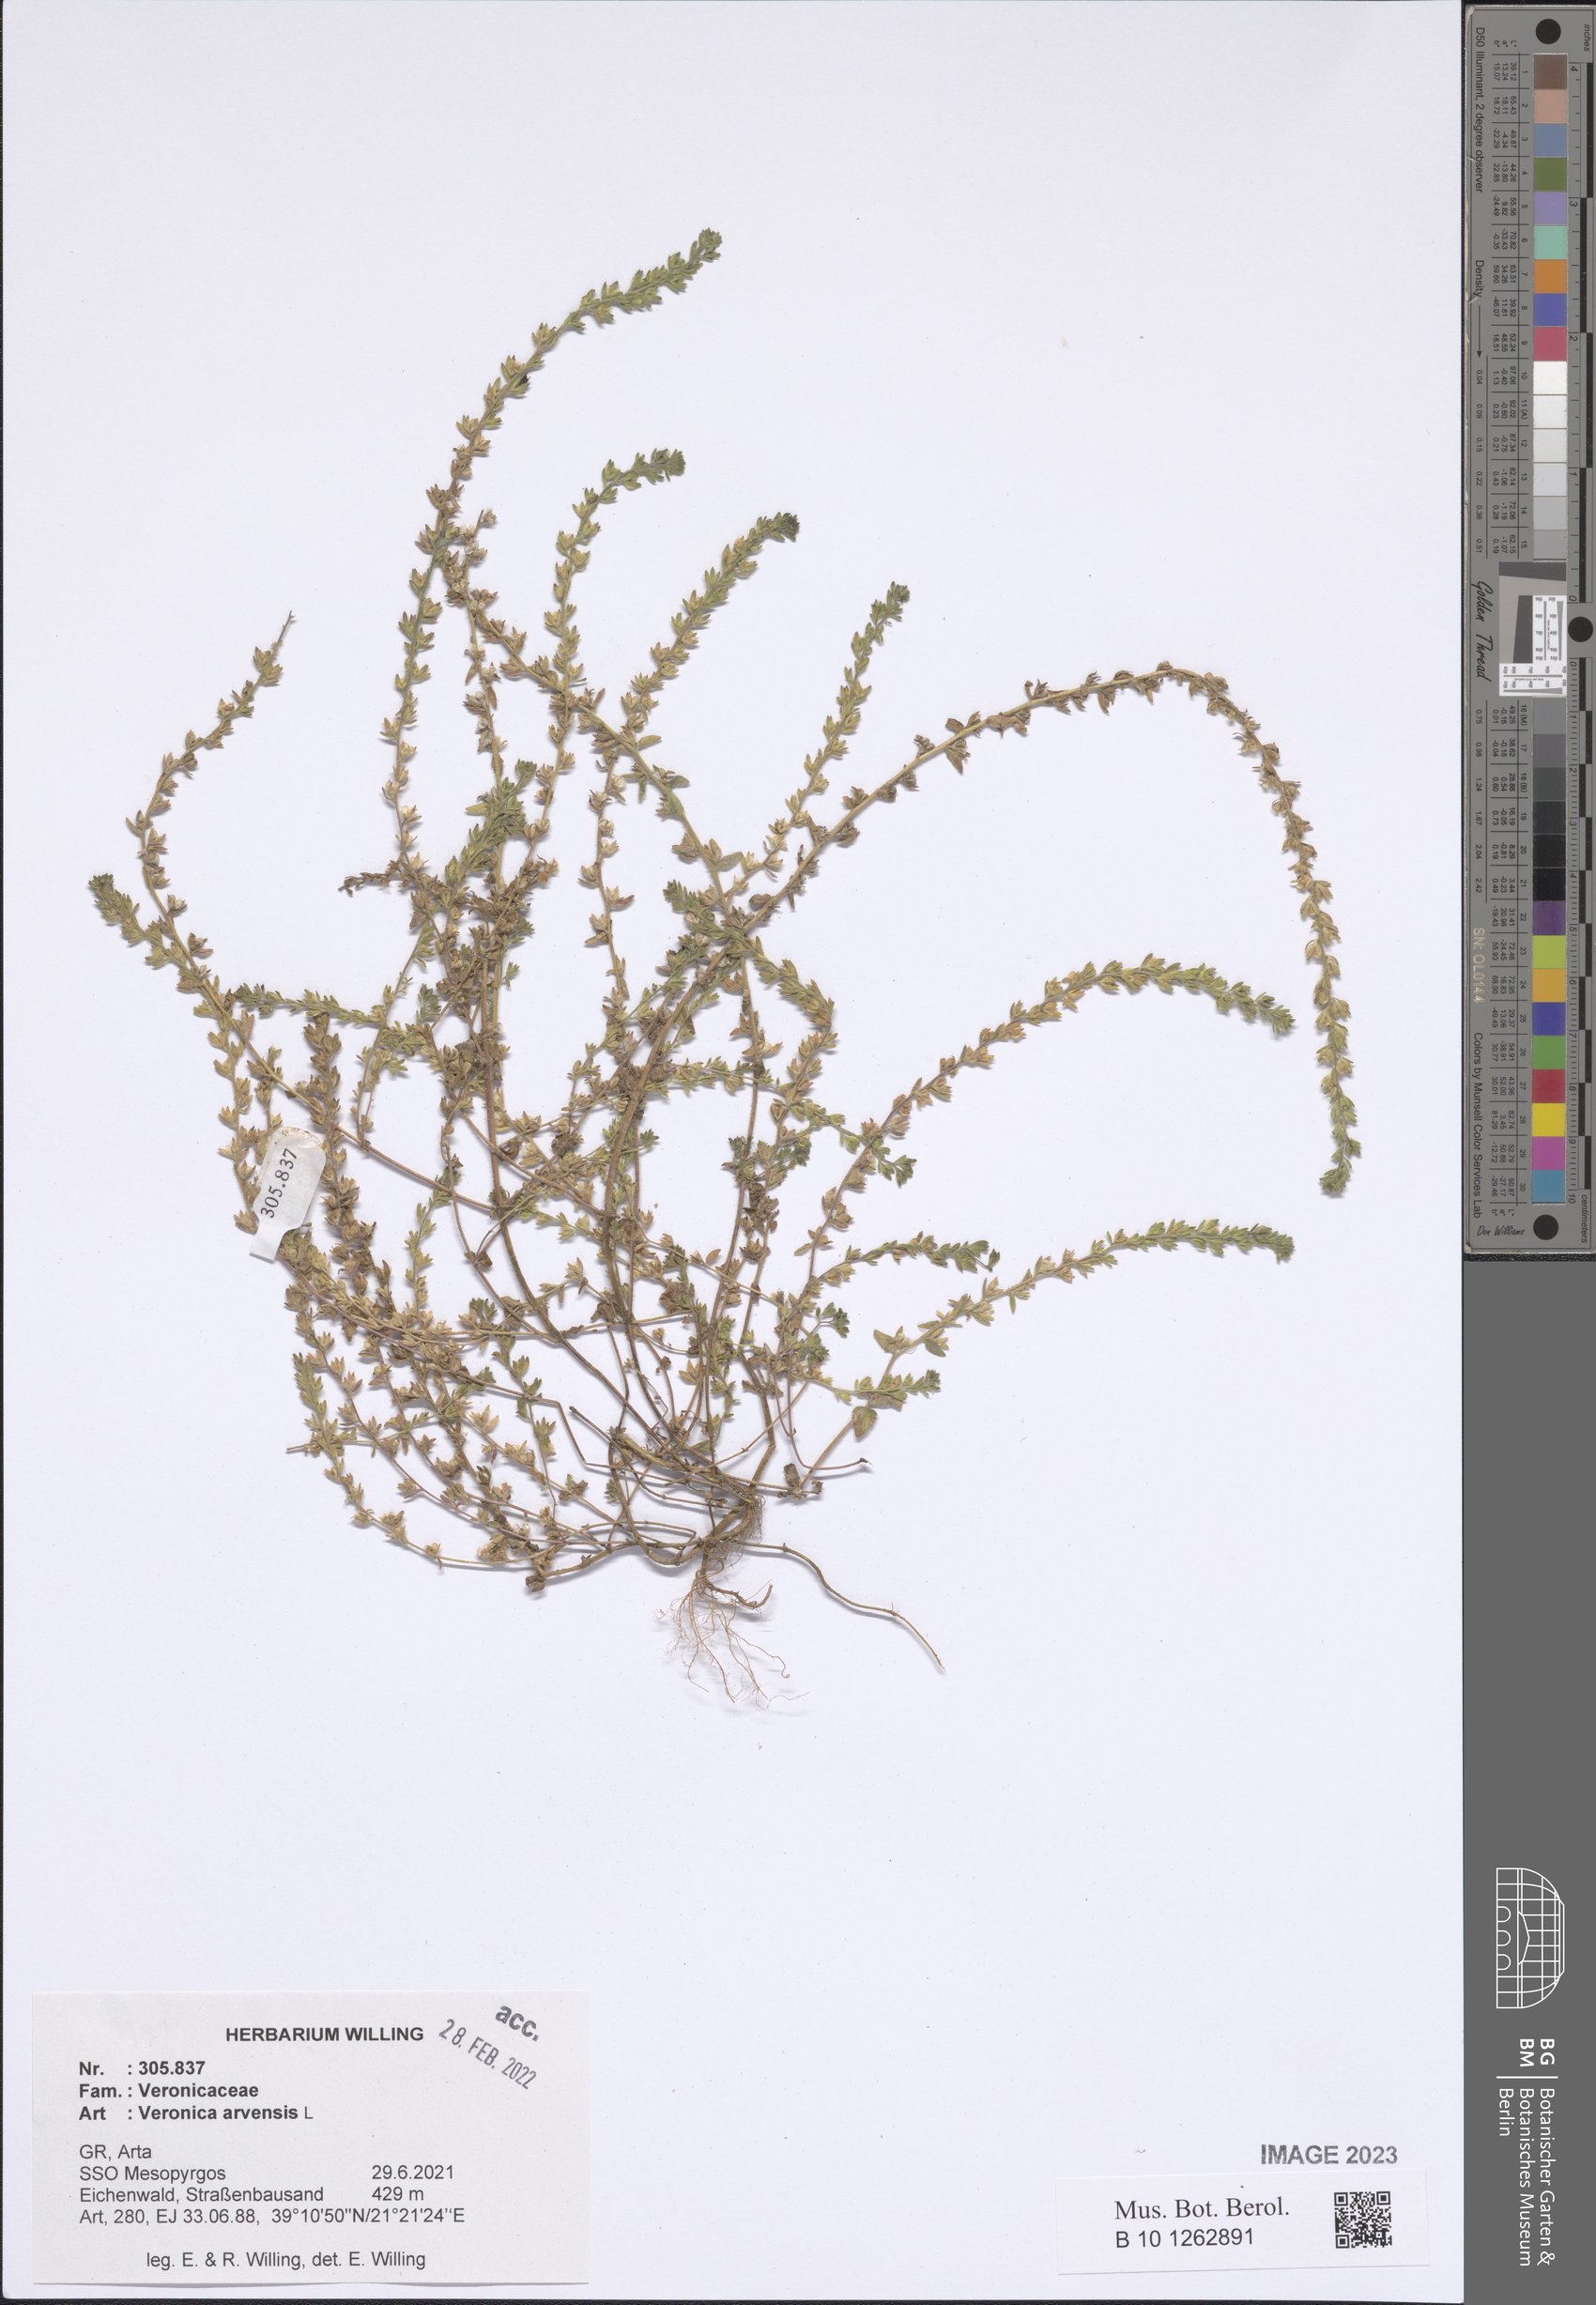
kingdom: Plantae
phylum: Tracheophyta
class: Magnoliopsida
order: Lamiales
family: Plantaginaceae
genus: Veronica
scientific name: Veronica arvensis
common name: Corn speedwell
